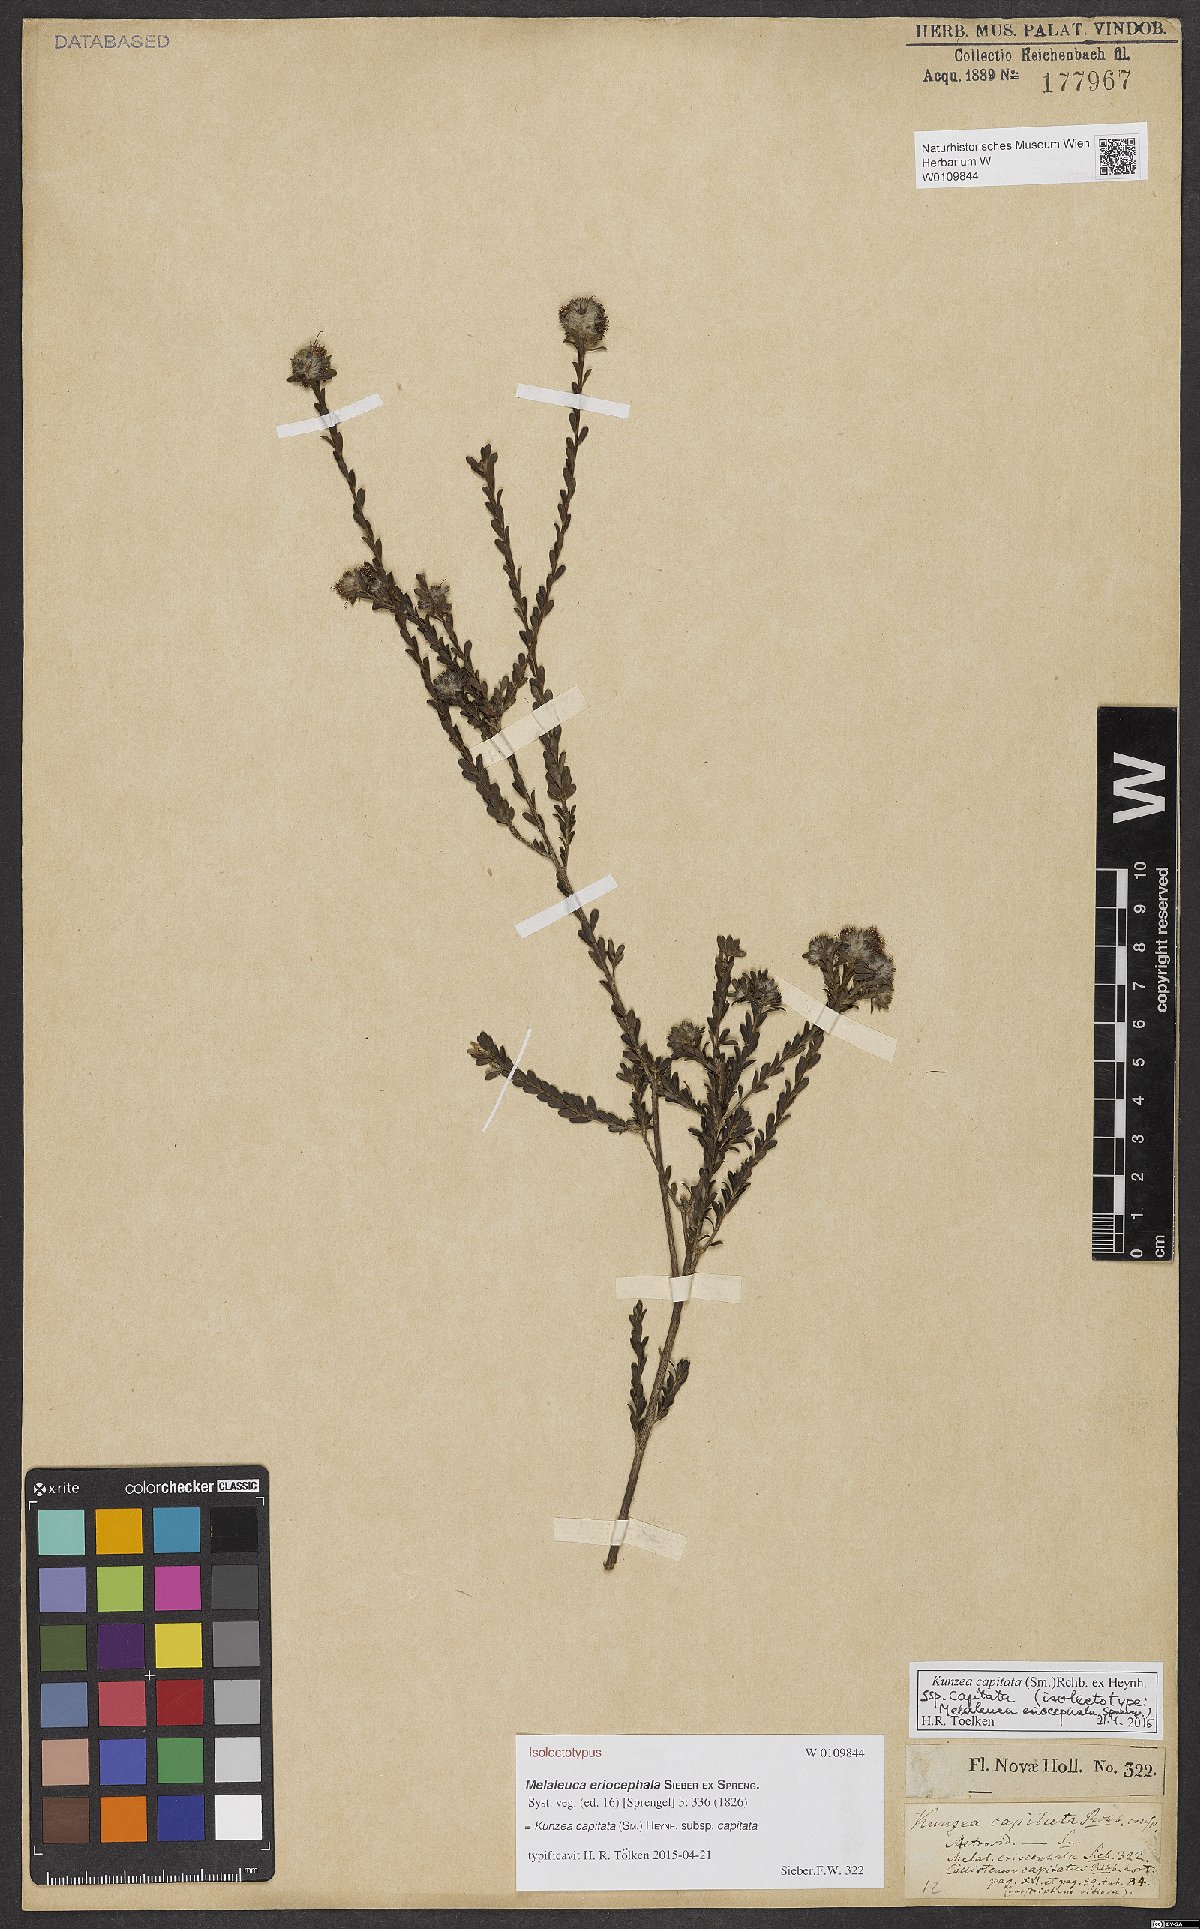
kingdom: Plantae
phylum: Tracheophyta
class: Magnoliopsida
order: Myrtales
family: Myrtaceae
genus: Kunzea
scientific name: Kunzea capitata
